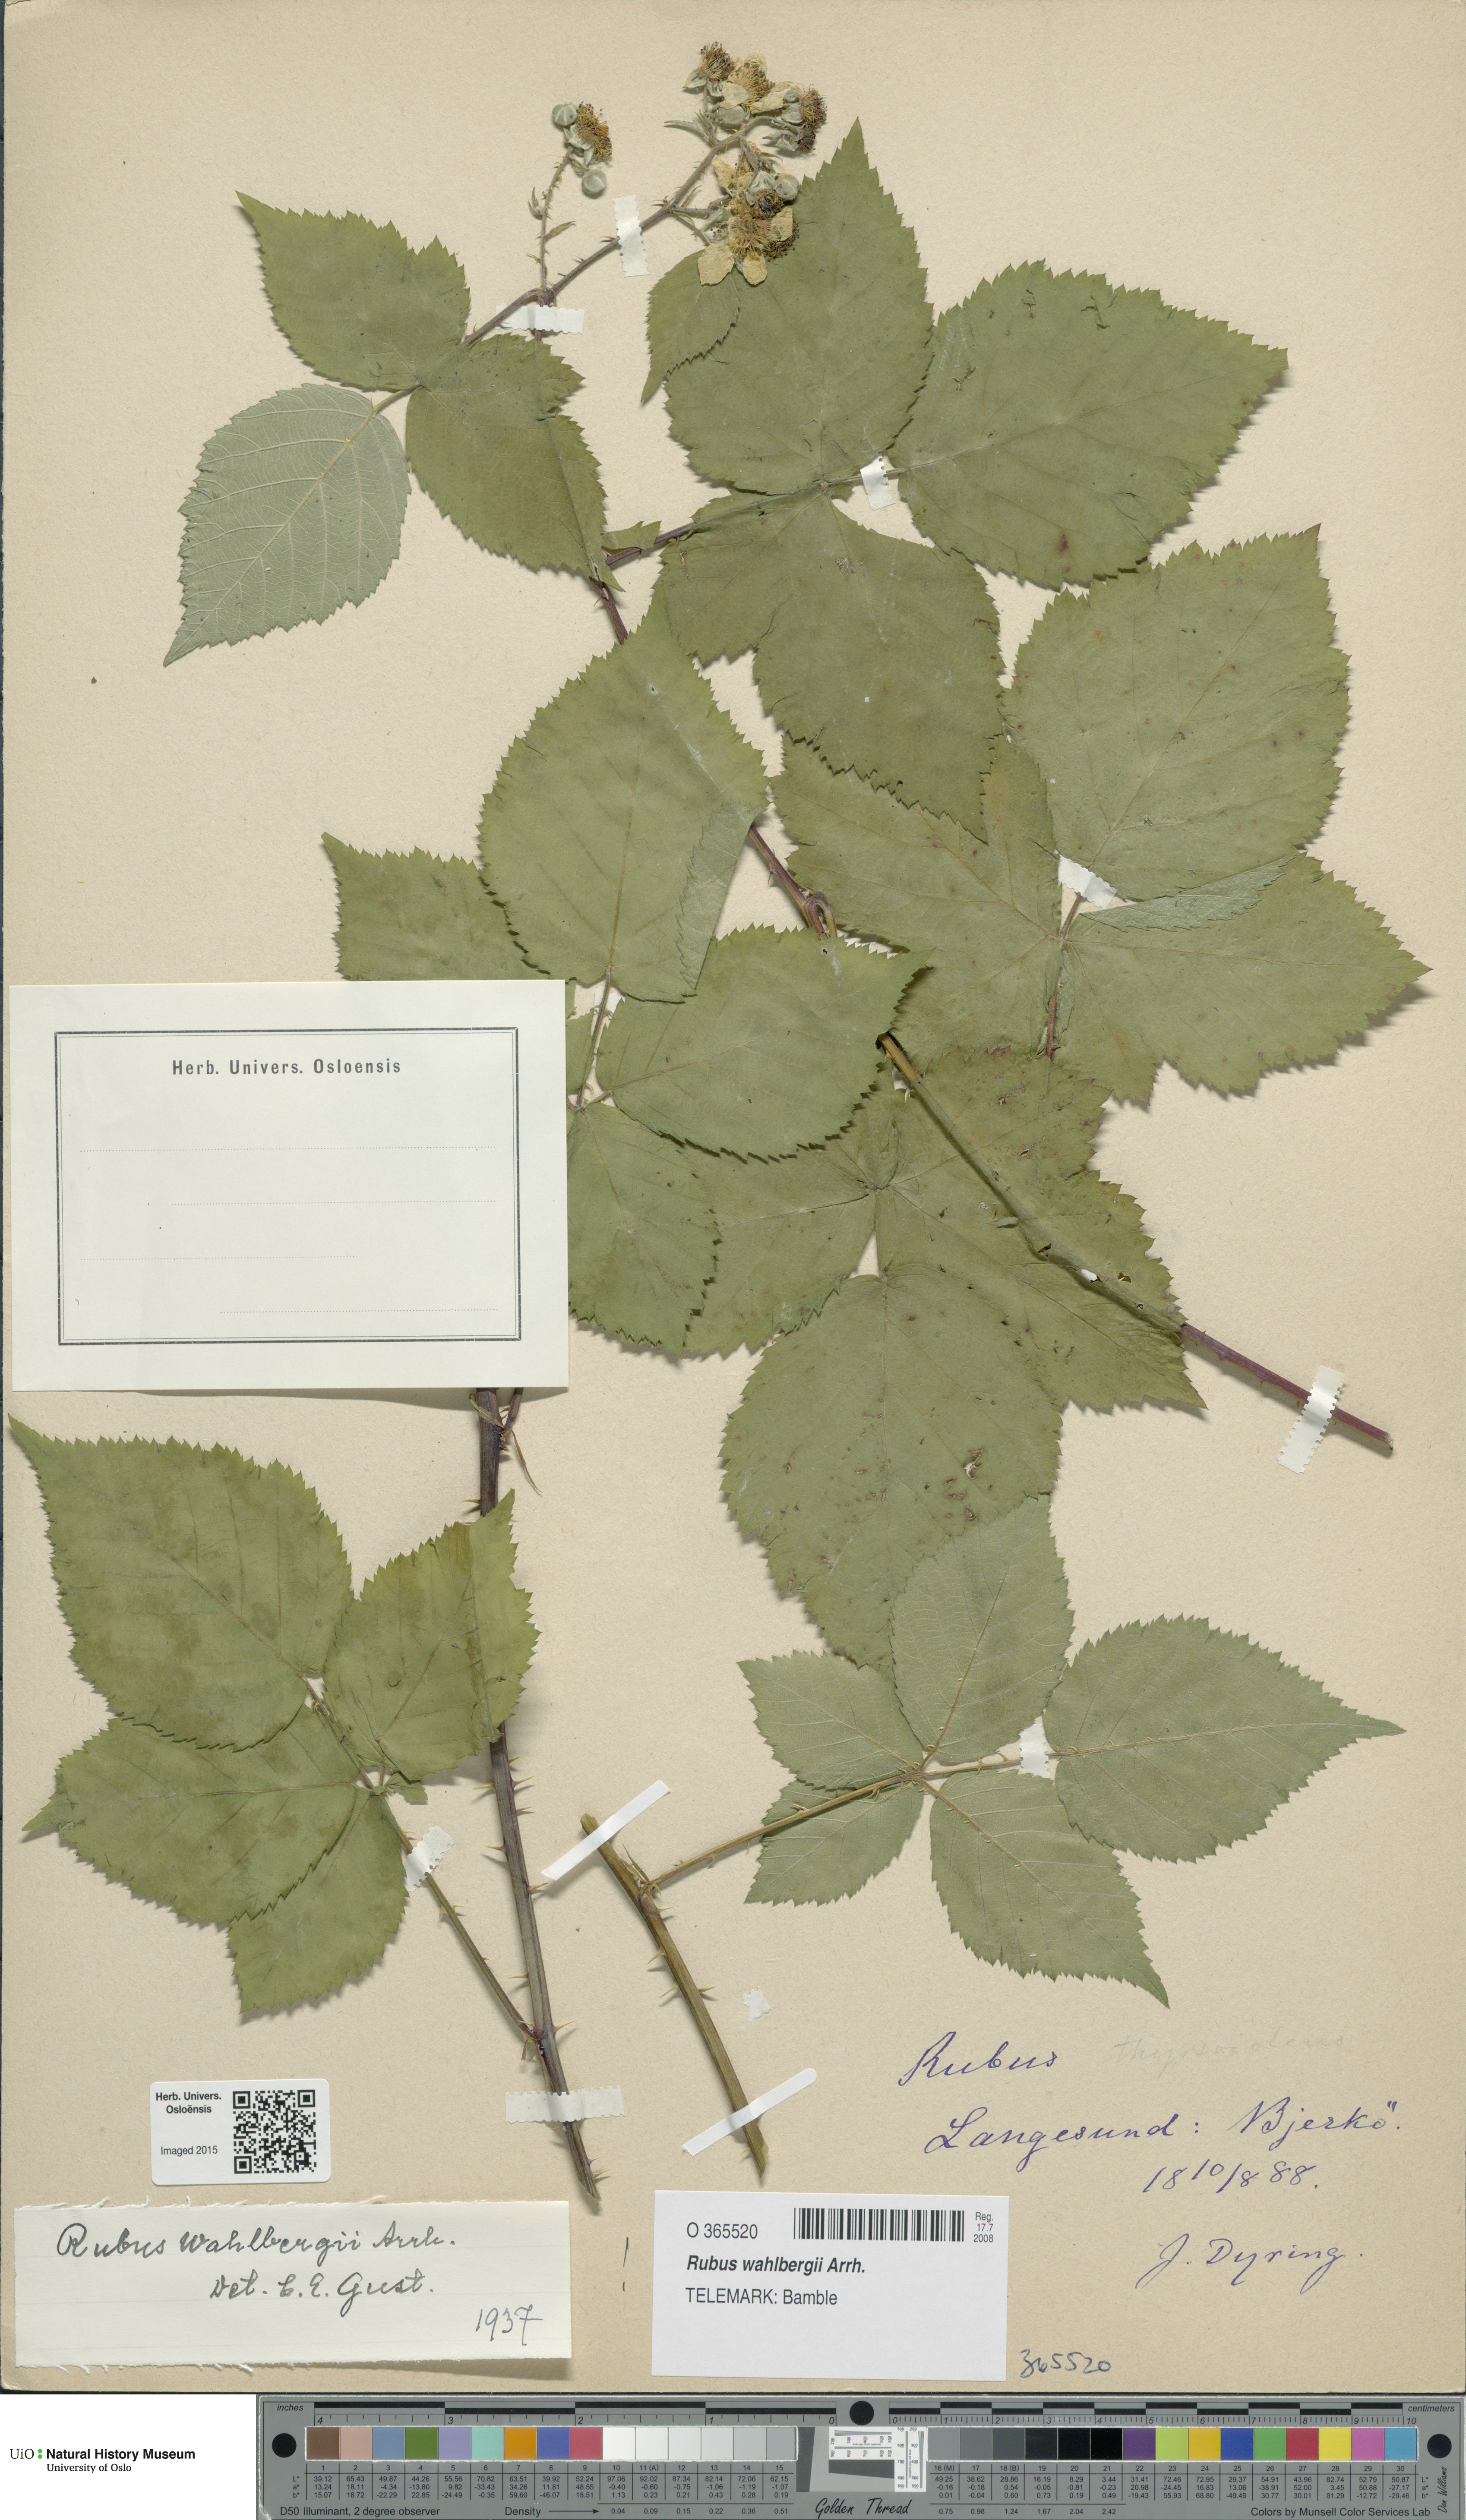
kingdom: Plantae
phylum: Tracheophyta
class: Magnoliopsida
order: Rosales
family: Rosaceae
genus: Rubus
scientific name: Rubus wahlbergii
